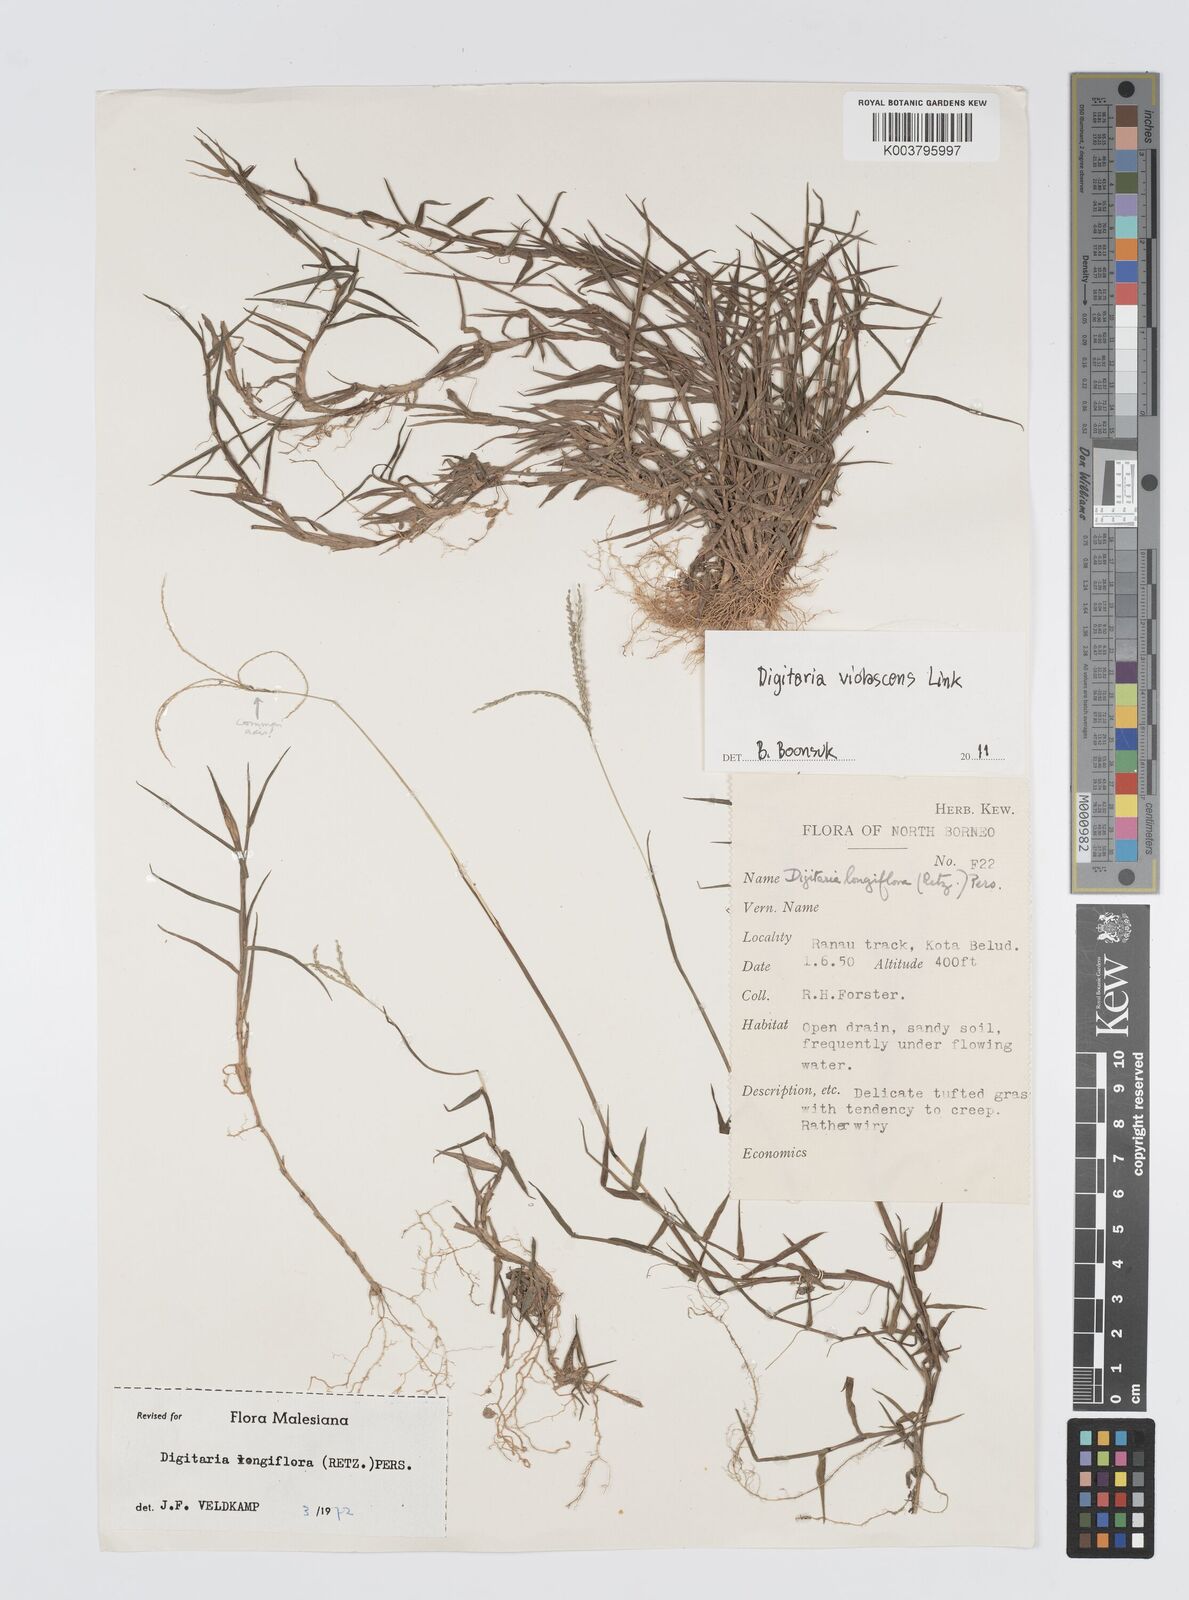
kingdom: Plantae
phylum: Tracheophyta
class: Liliopsida
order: Poales
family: Poaceae
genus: Digitaria
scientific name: Digitaria violascens
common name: Violet crabgrass
